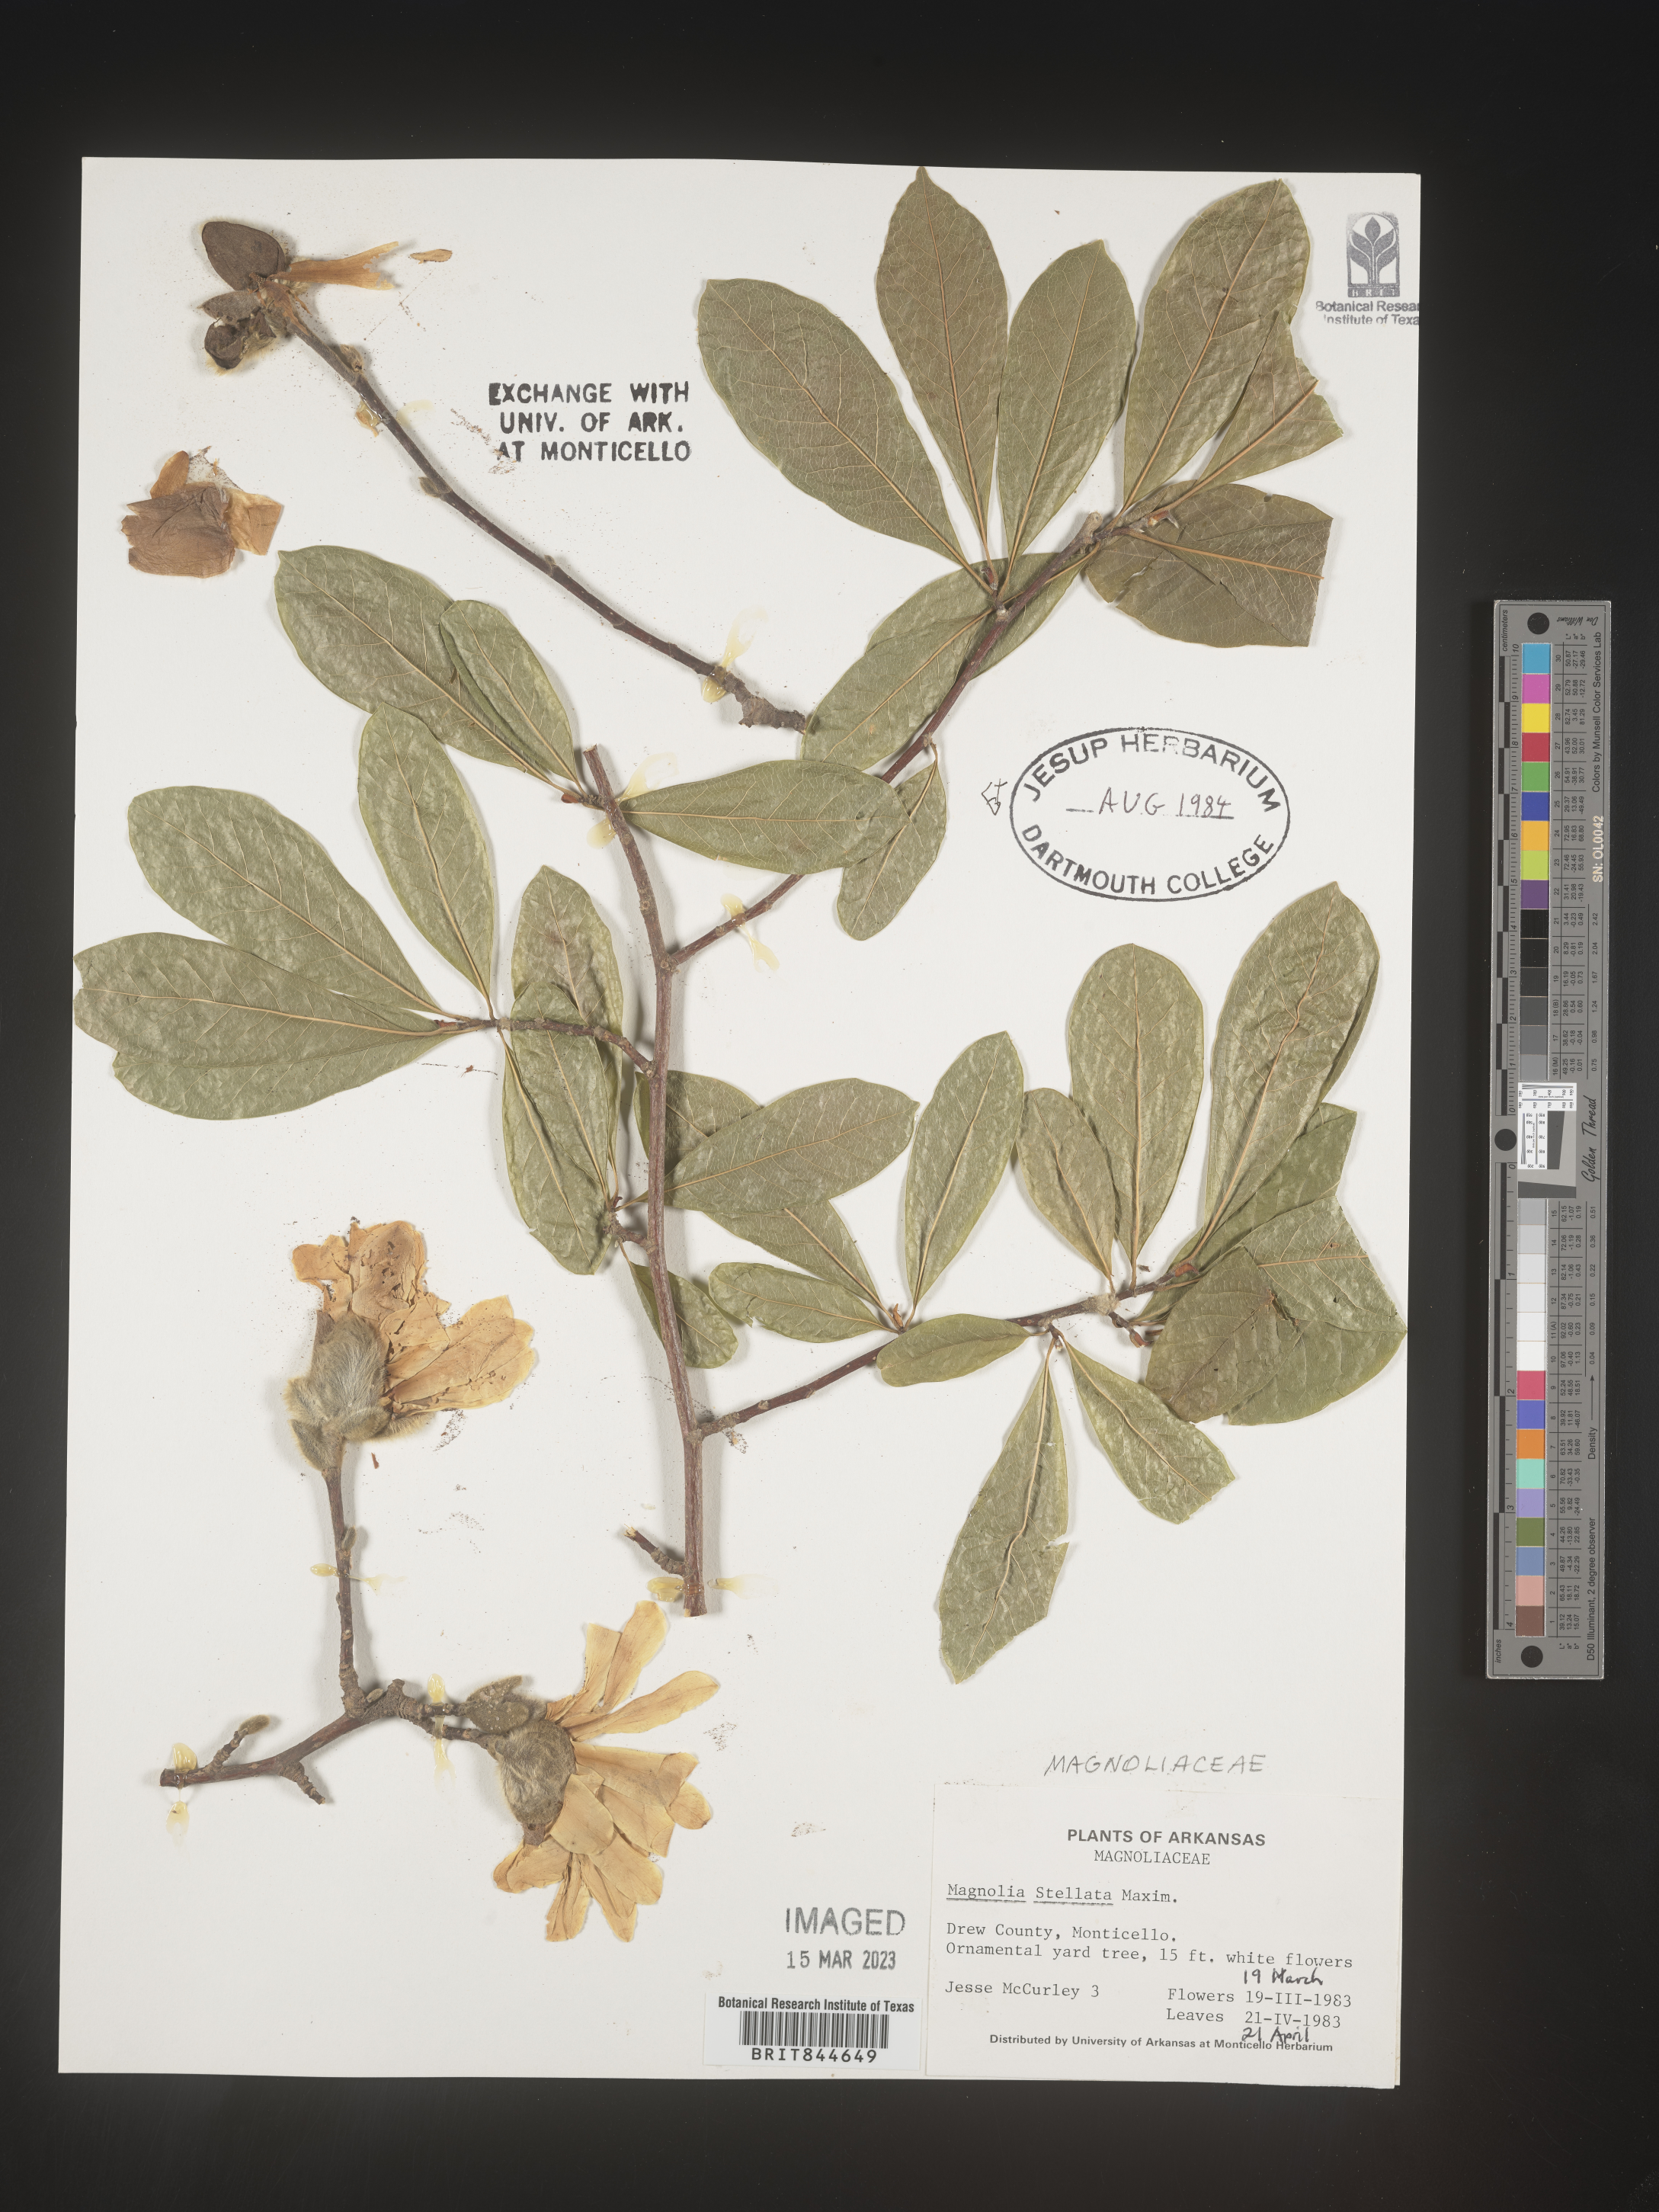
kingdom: Plantae
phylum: Tracheophyta
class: Magnoliopsida
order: Magnoliales
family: Magnoliaceae
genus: Magnolia
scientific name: Magnolia stellata
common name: Star magnolia
